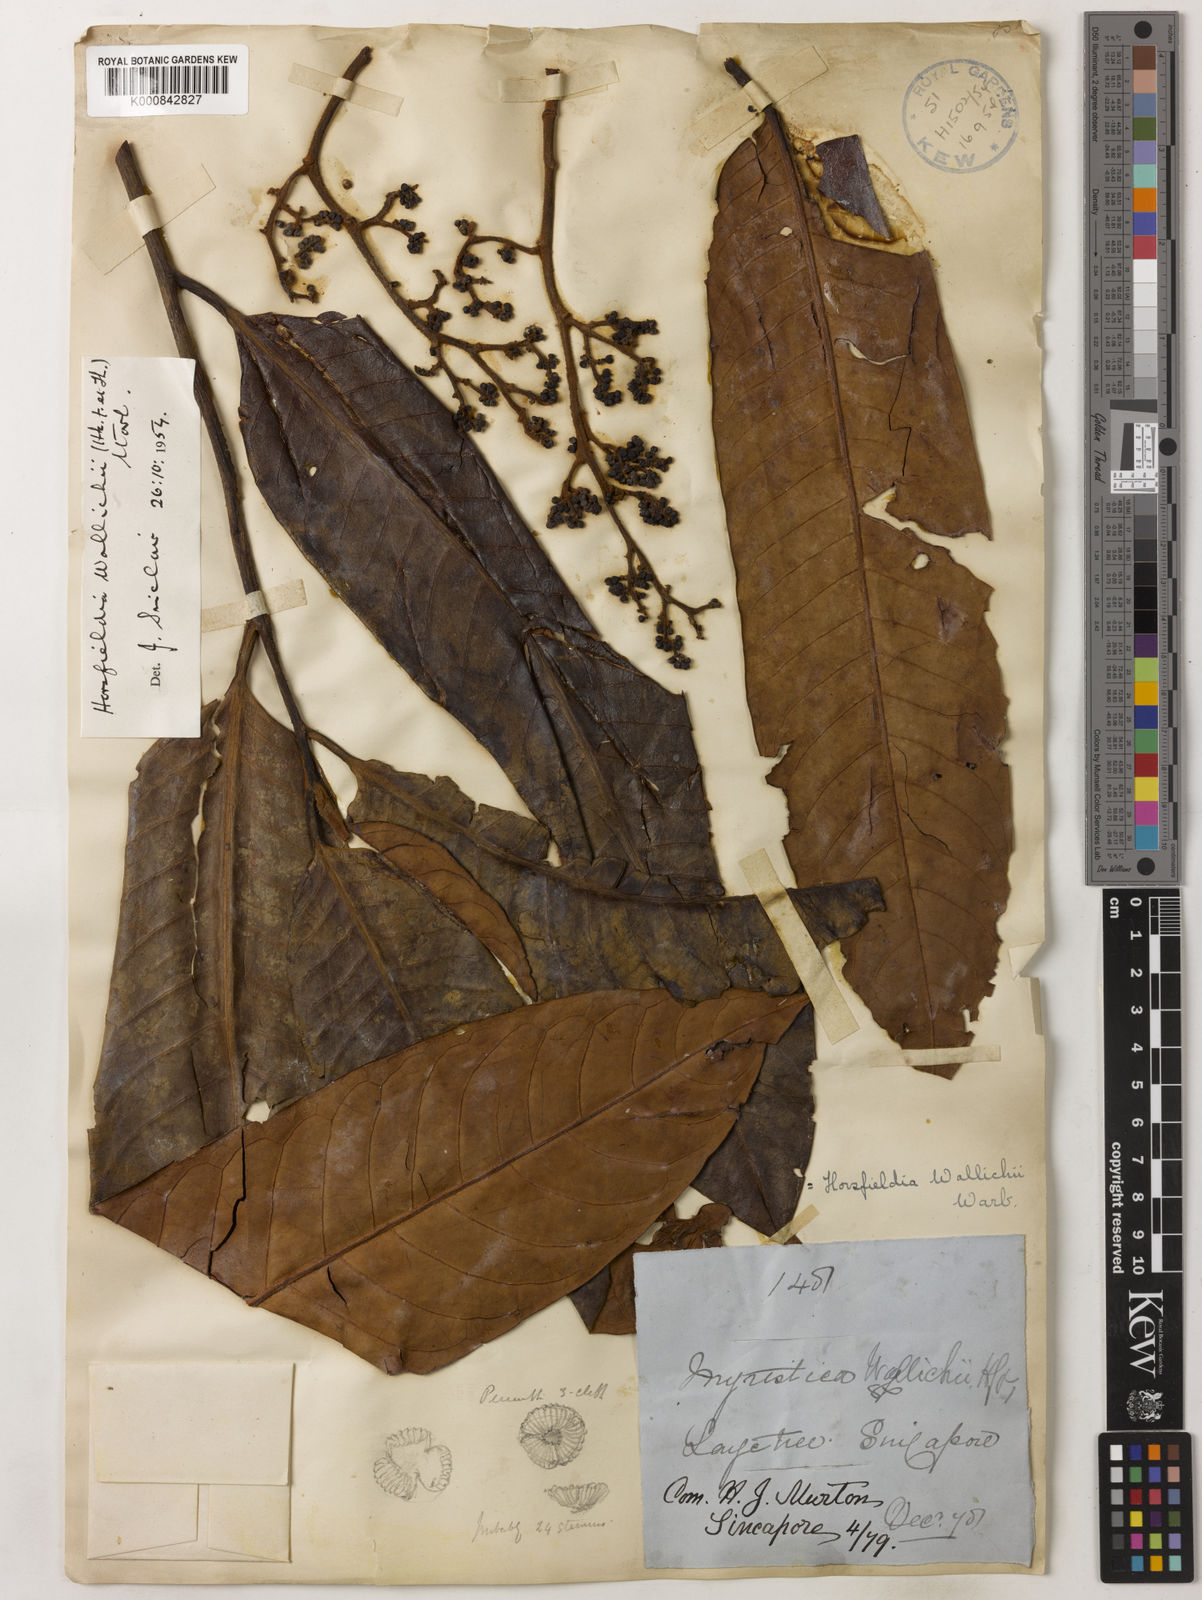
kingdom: Plantae
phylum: Tracheophyta
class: Magnoliopsida
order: Magnoliales
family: Myristicaceae
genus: Horsfieldia
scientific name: Horsfieldia wallichii
